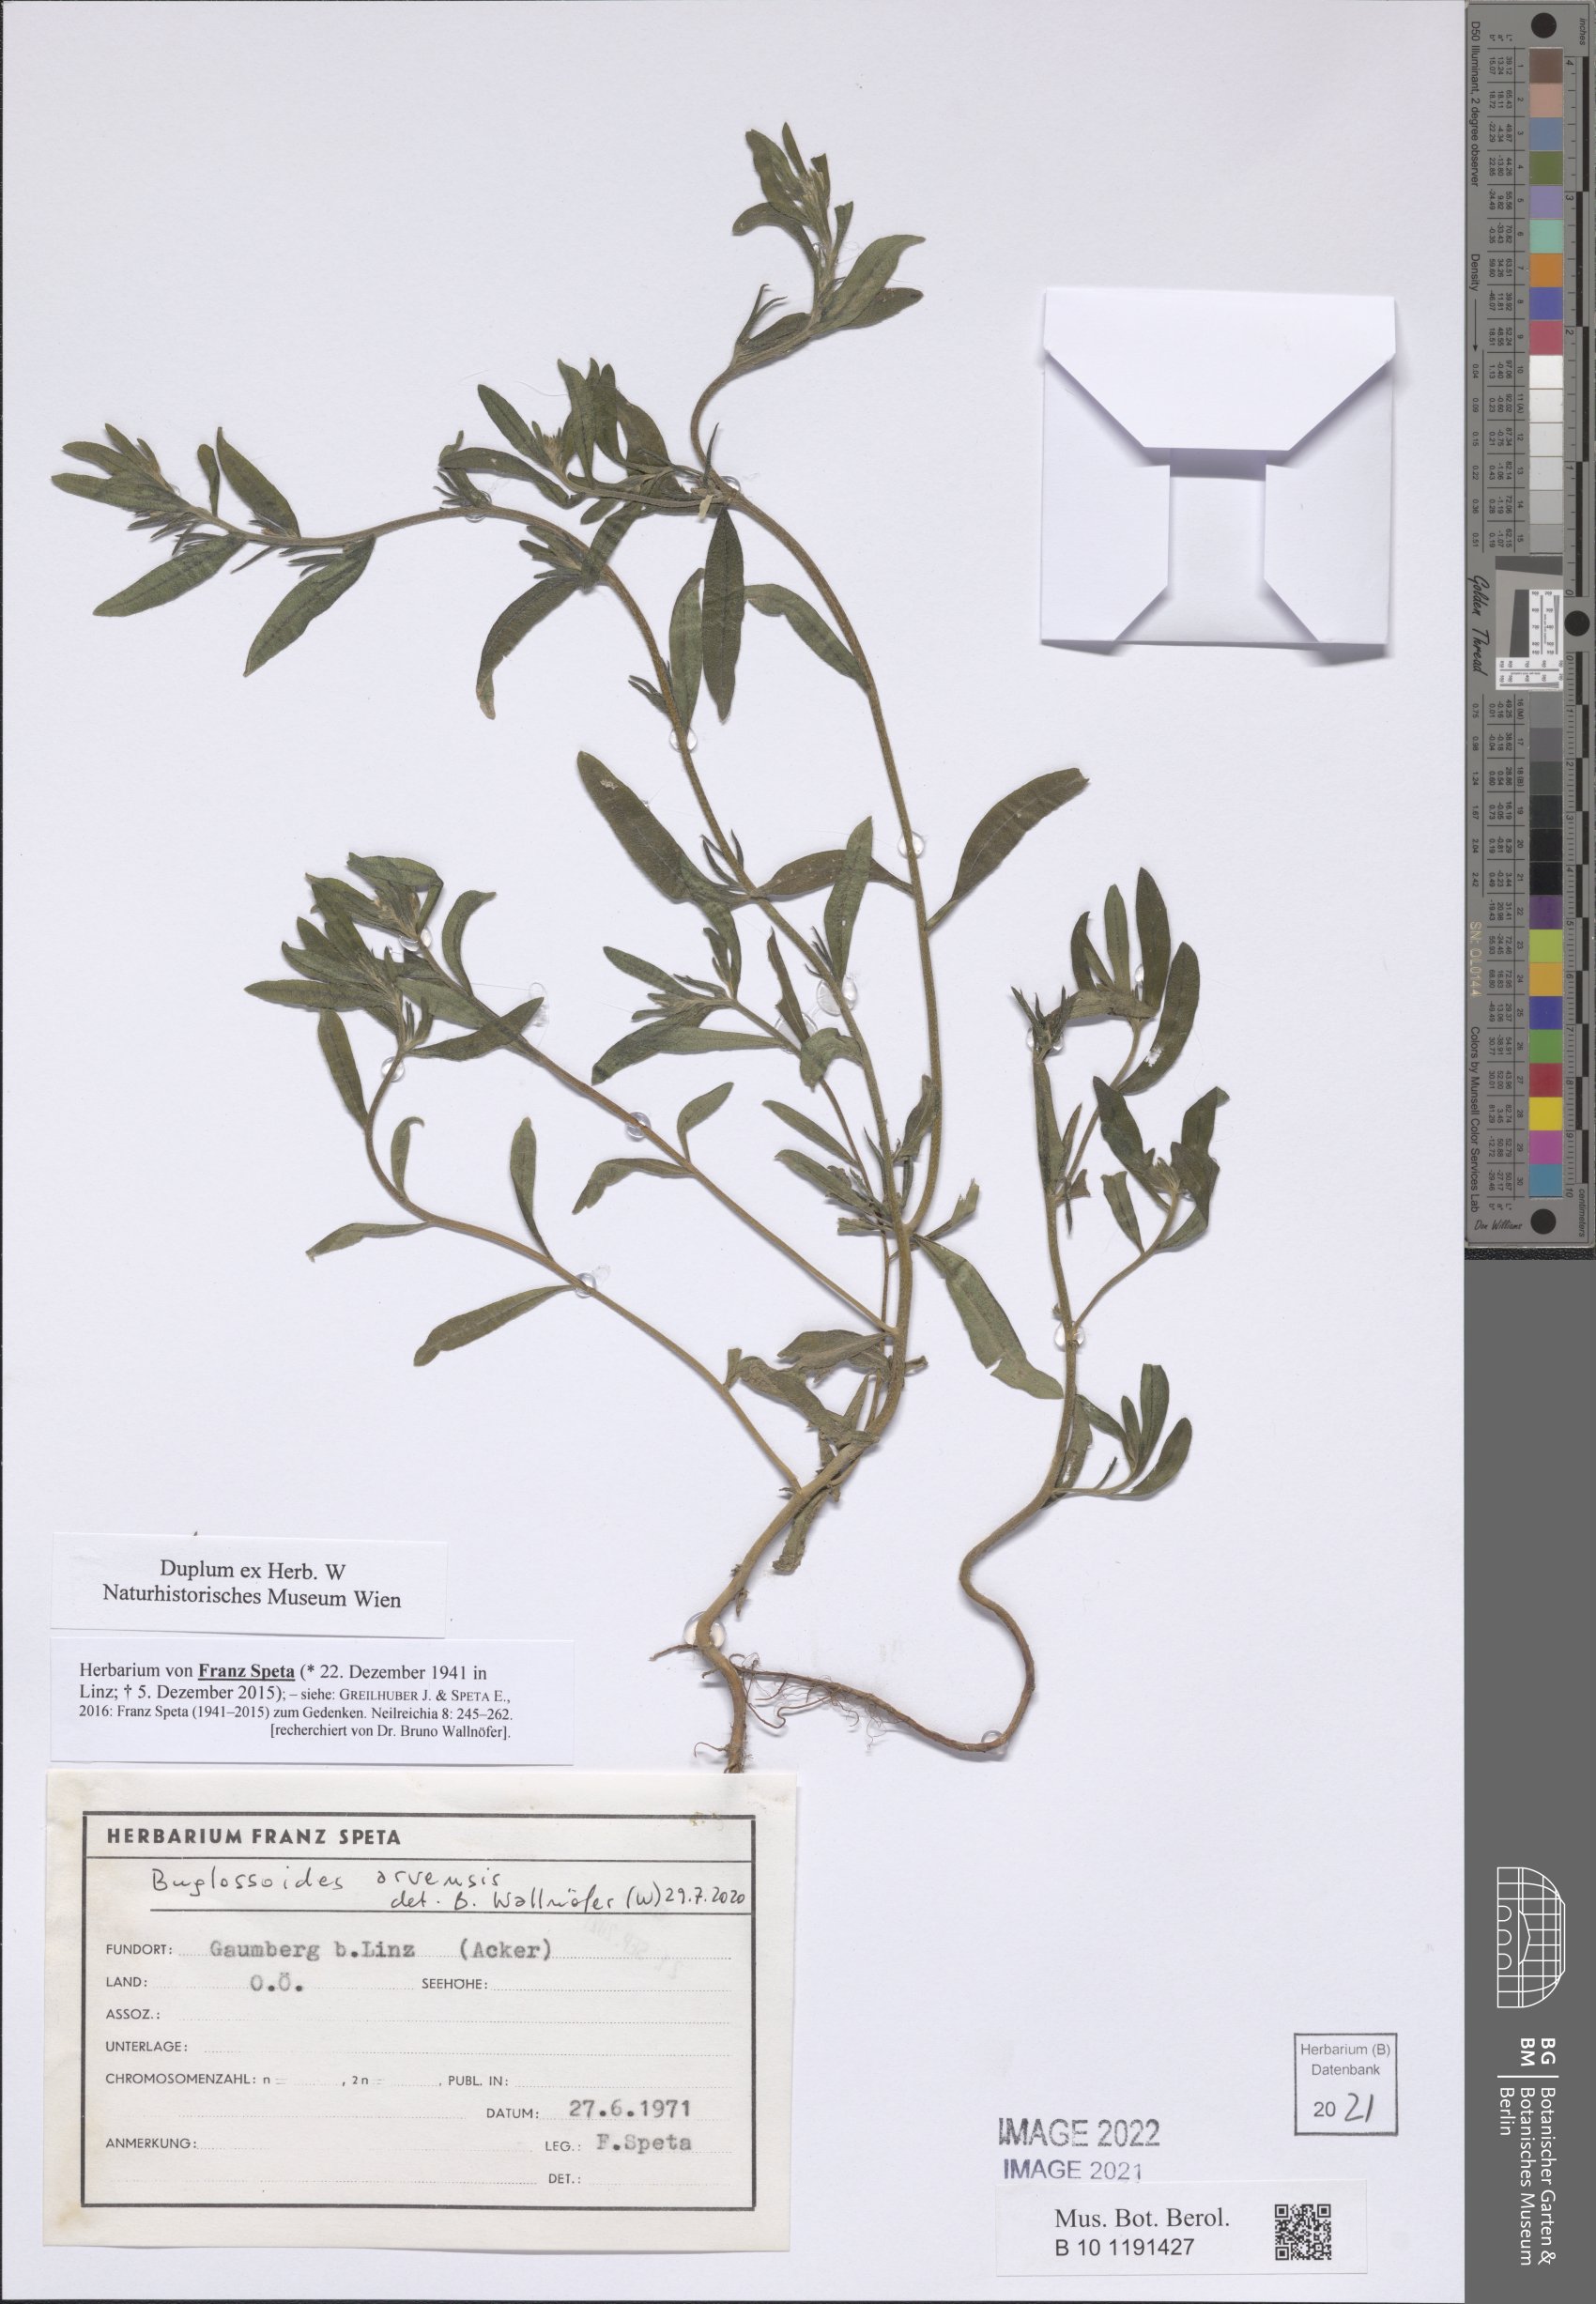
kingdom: Plantae
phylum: Tracheophyta
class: Magnoliopsida
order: Boraginales
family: Boraginaceae
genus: Buglossoides
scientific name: Buglossoides arvensis
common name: Corn gromwell
